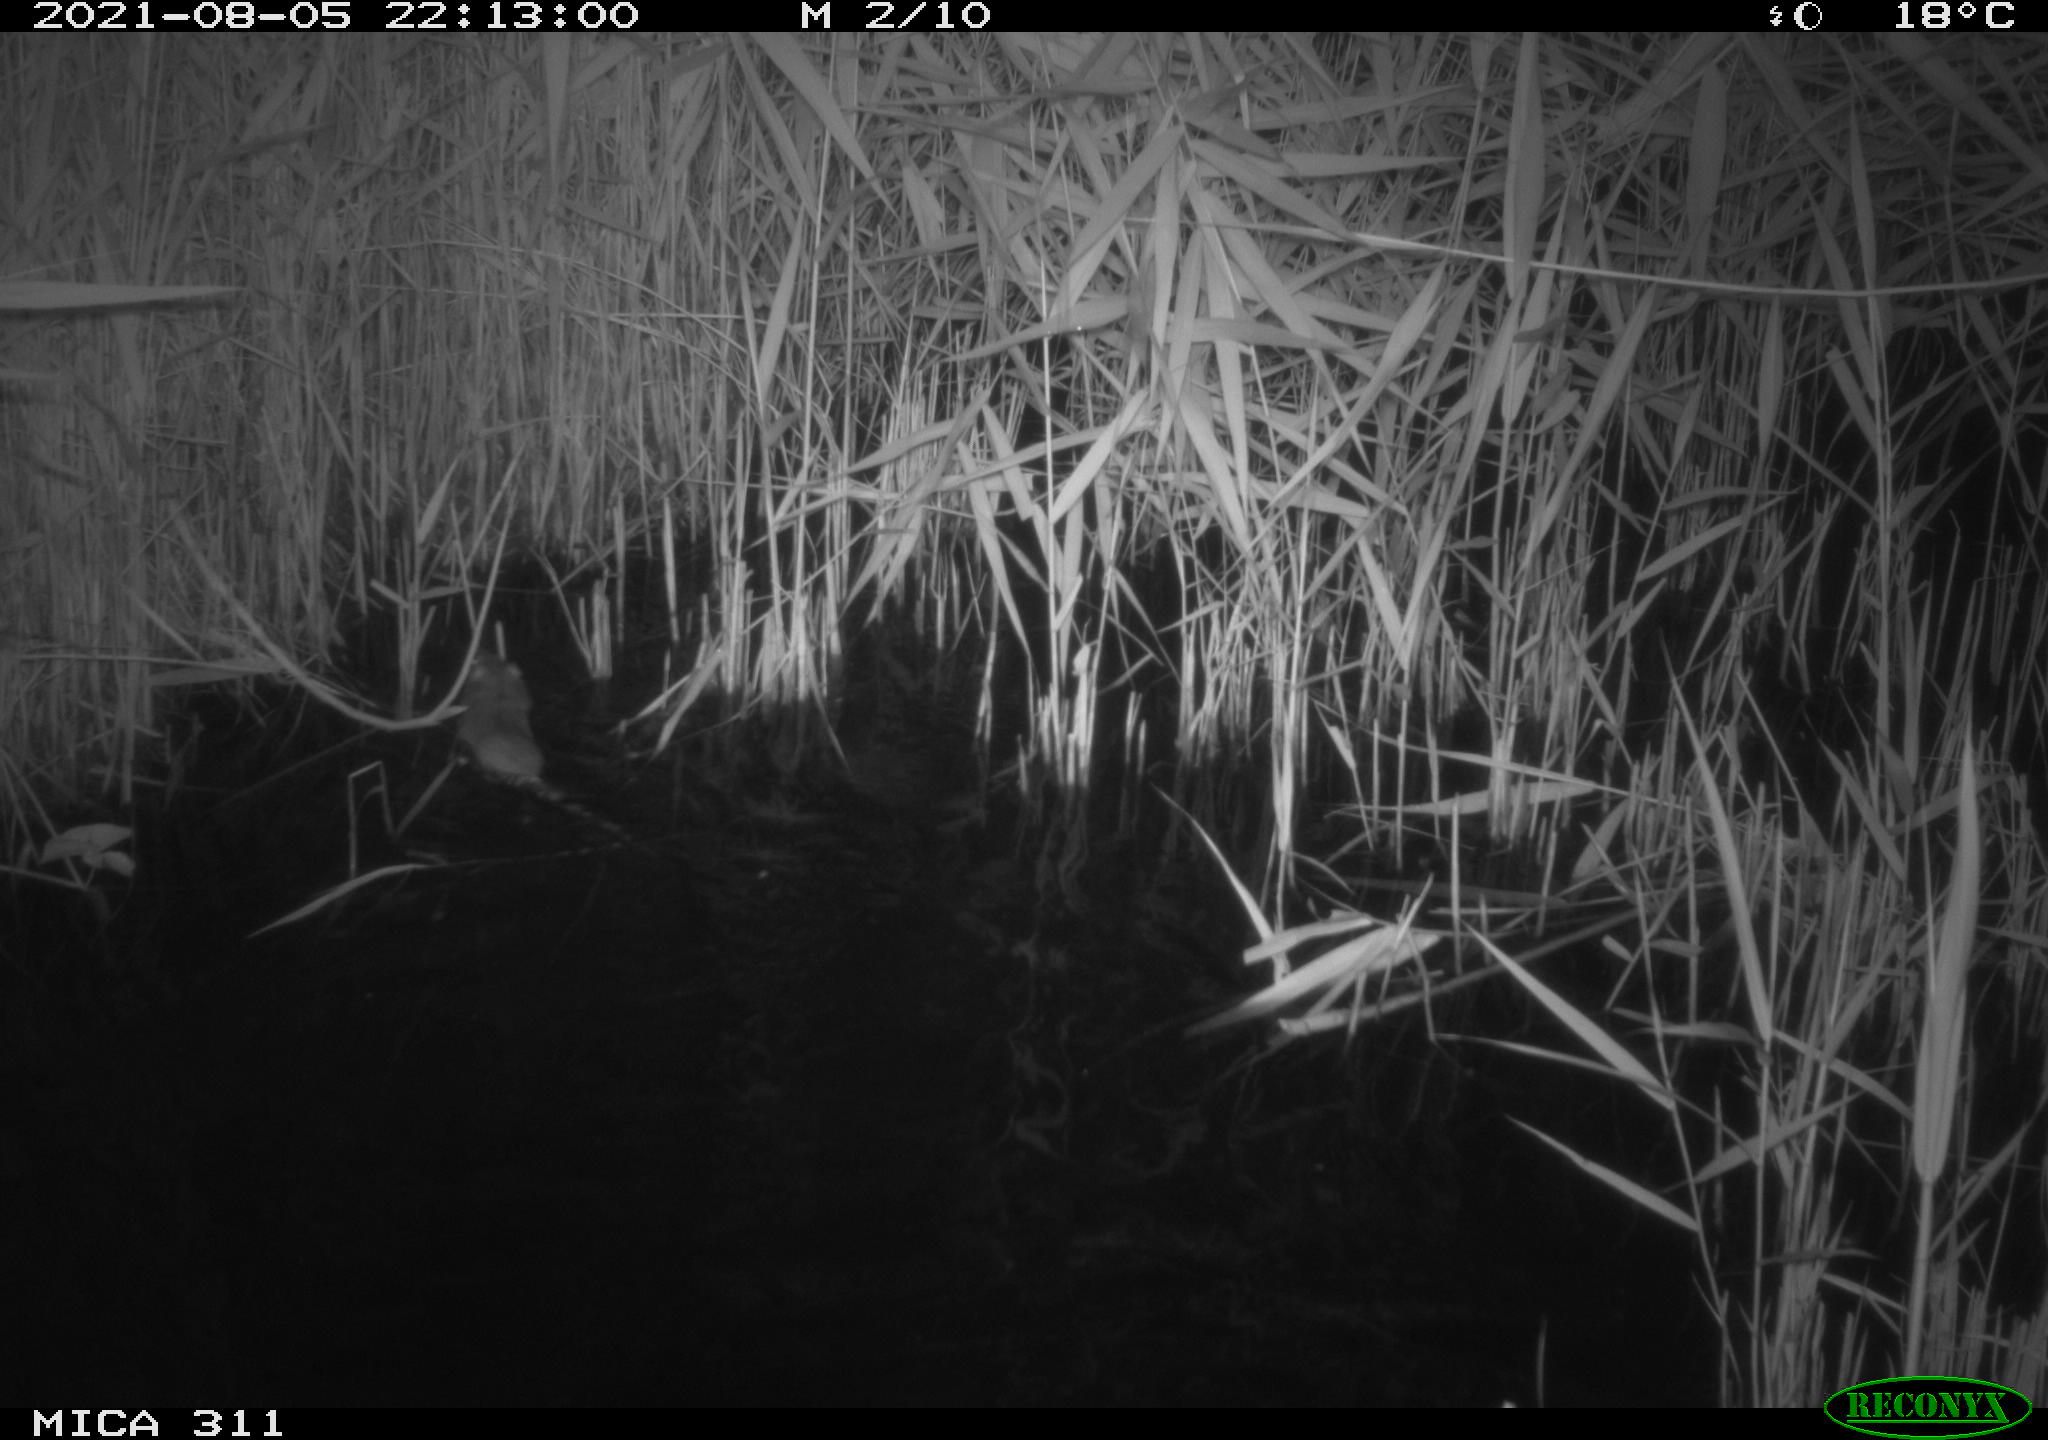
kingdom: Animalia
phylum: Chordata
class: Mammalia
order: Rodentia
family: Muridae
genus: Rattus
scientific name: Rattus norvegicus
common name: Brown rat
